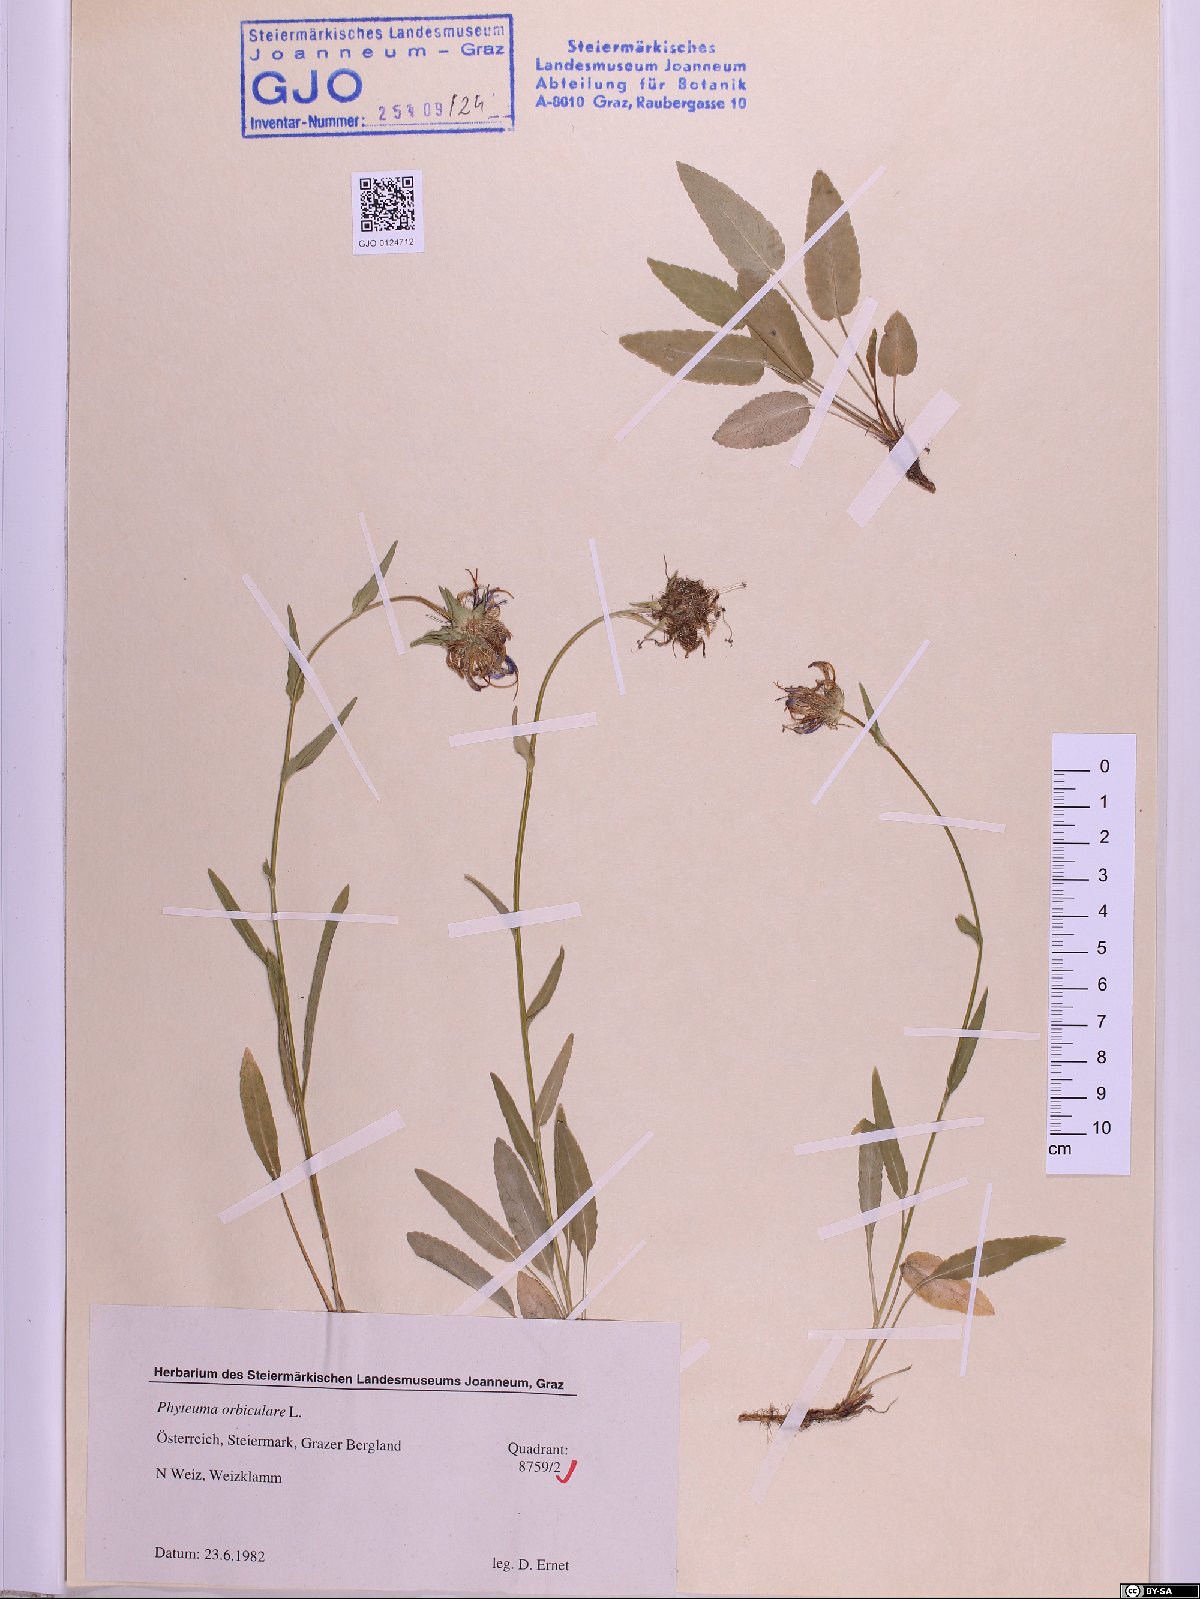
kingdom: Plantae
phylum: Tracheophyta
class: Magnoliopsida
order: Asterales
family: Campanulaceae
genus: Phyteuma
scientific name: Phyteuma orbiculare
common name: Round-headed rampion
